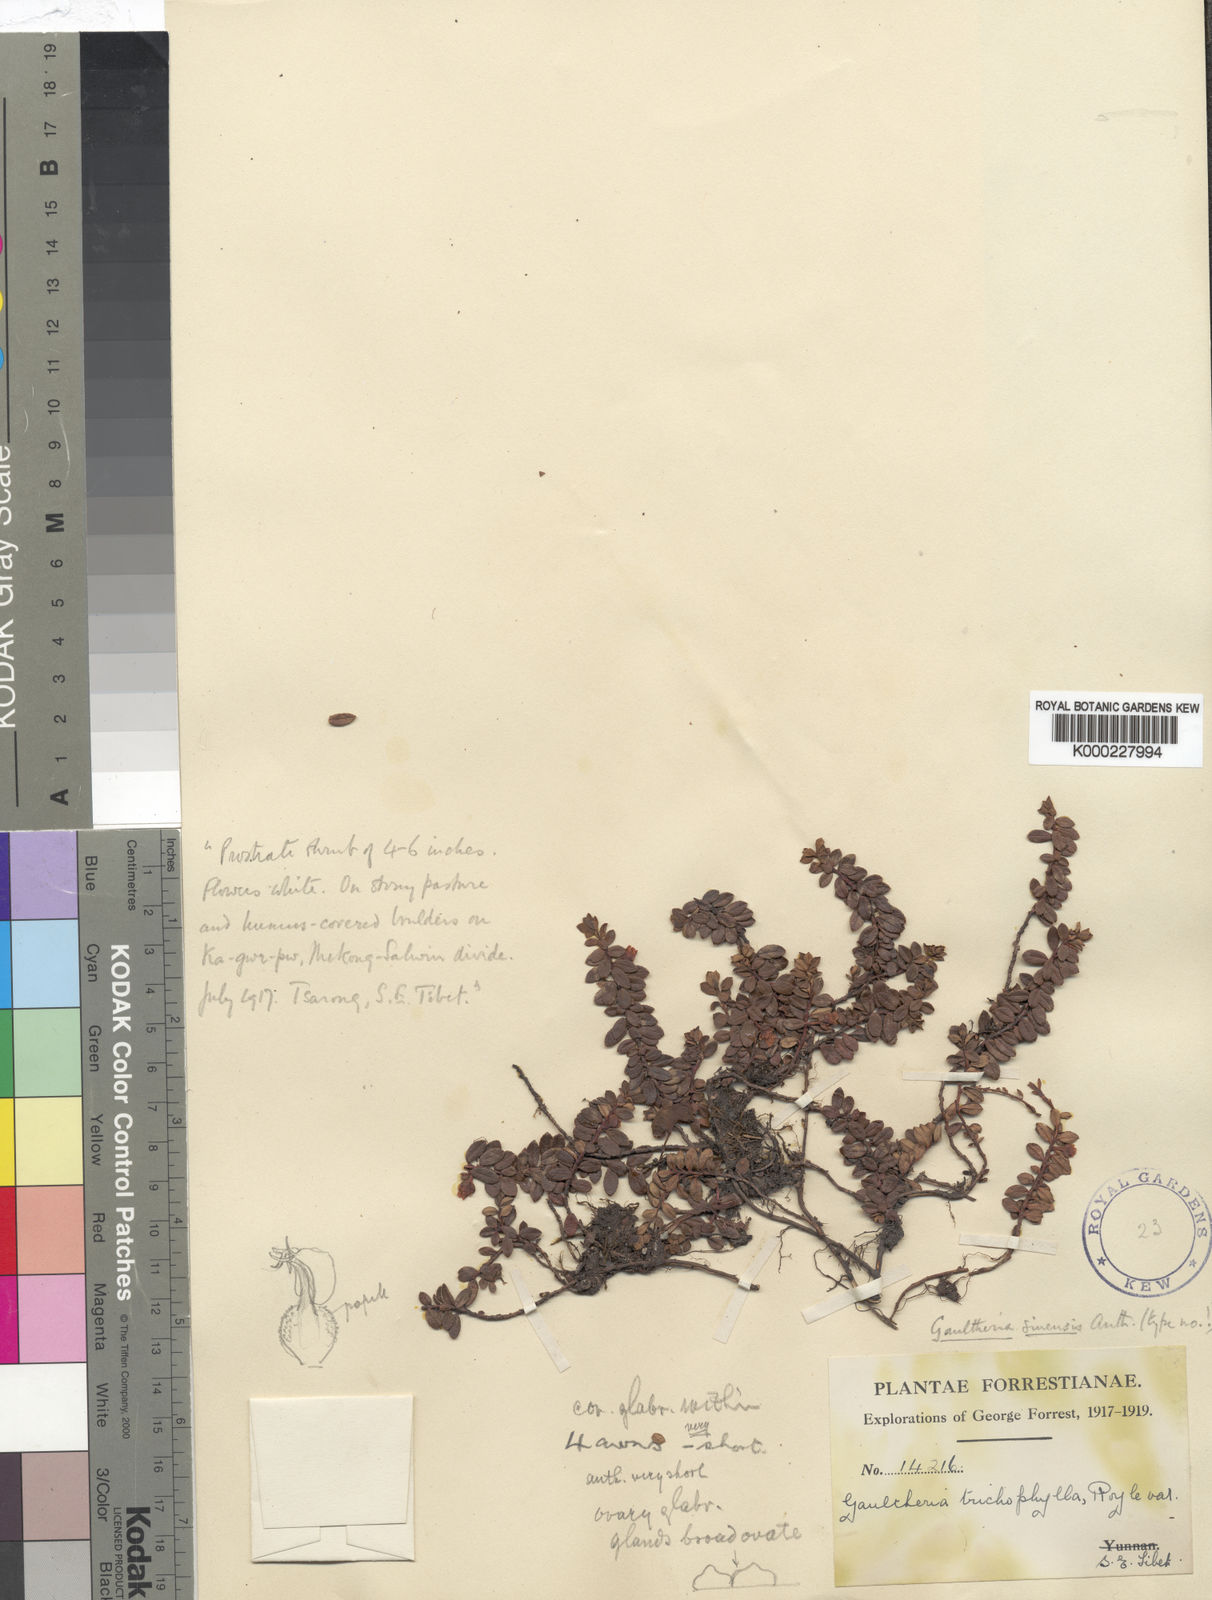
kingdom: Plantae
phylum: Tracheophyta
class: Magnoliopsida
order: Ericales
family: Ericaceae
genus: Gaultheria
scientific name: Gaultheria sinensis
